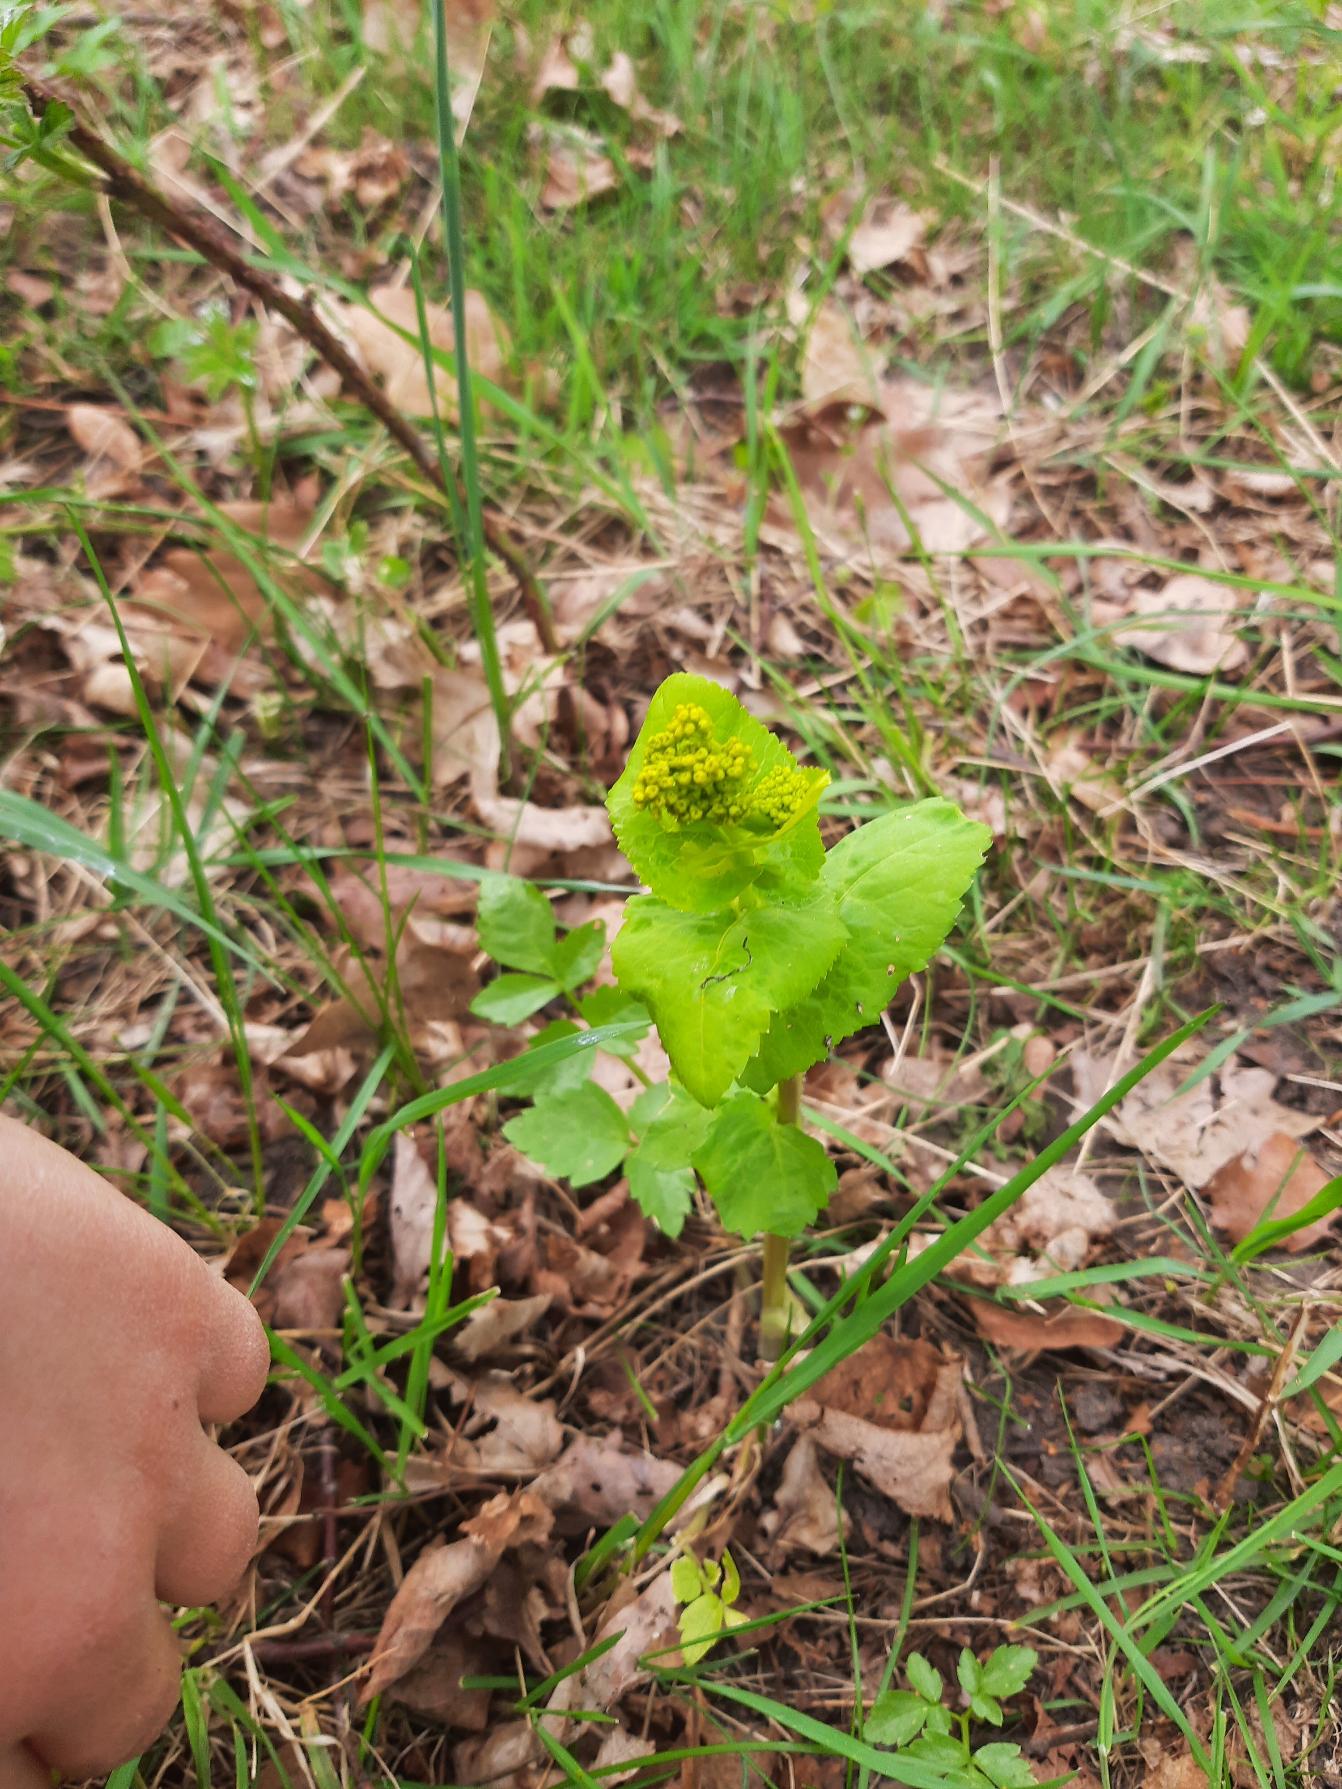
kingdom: Plantae
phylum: Tracheophyta
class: Magnoliopsida
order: Apiales
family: Apiaceae
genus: Smyrnium
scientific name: Smyrnium perfoliatum
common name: Lundgylden
